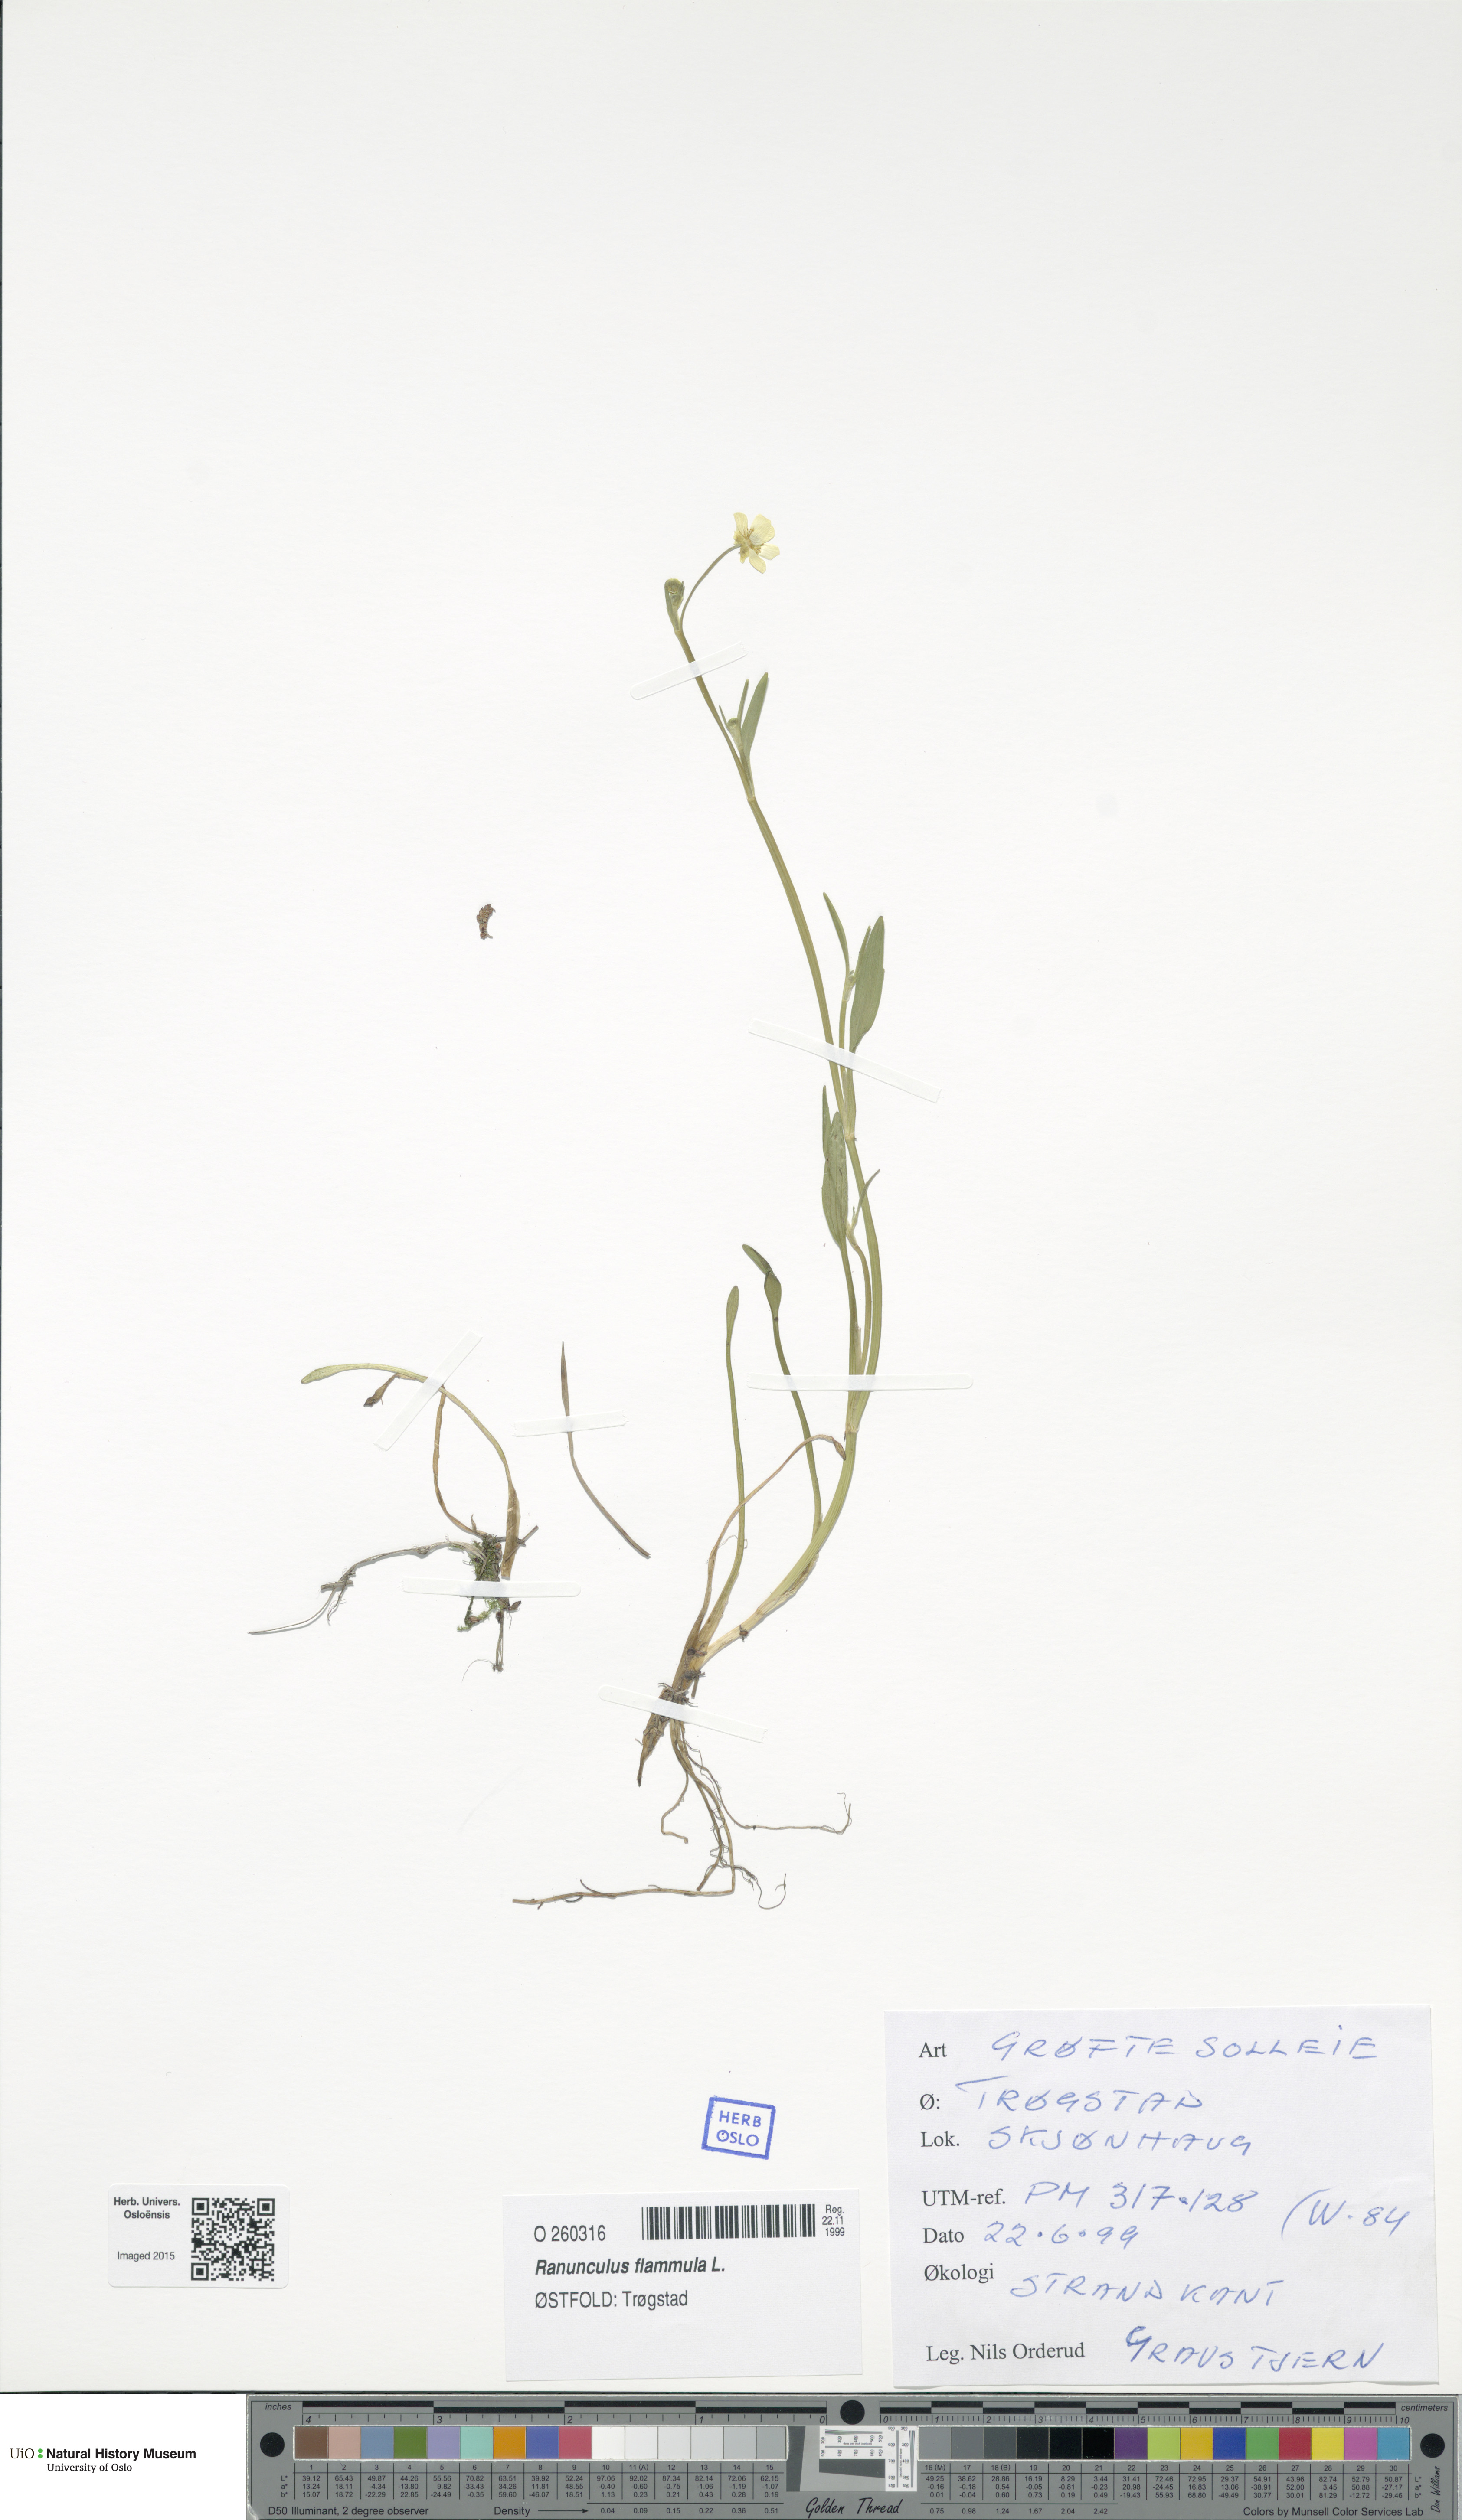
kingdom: Plantae
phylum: Tracheophyta
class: Magnoliopsida
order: Ranunculales
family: Ranunculaceae
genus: Ranunculus
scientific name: Ranunculus flammula
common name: Lesser spearwort
